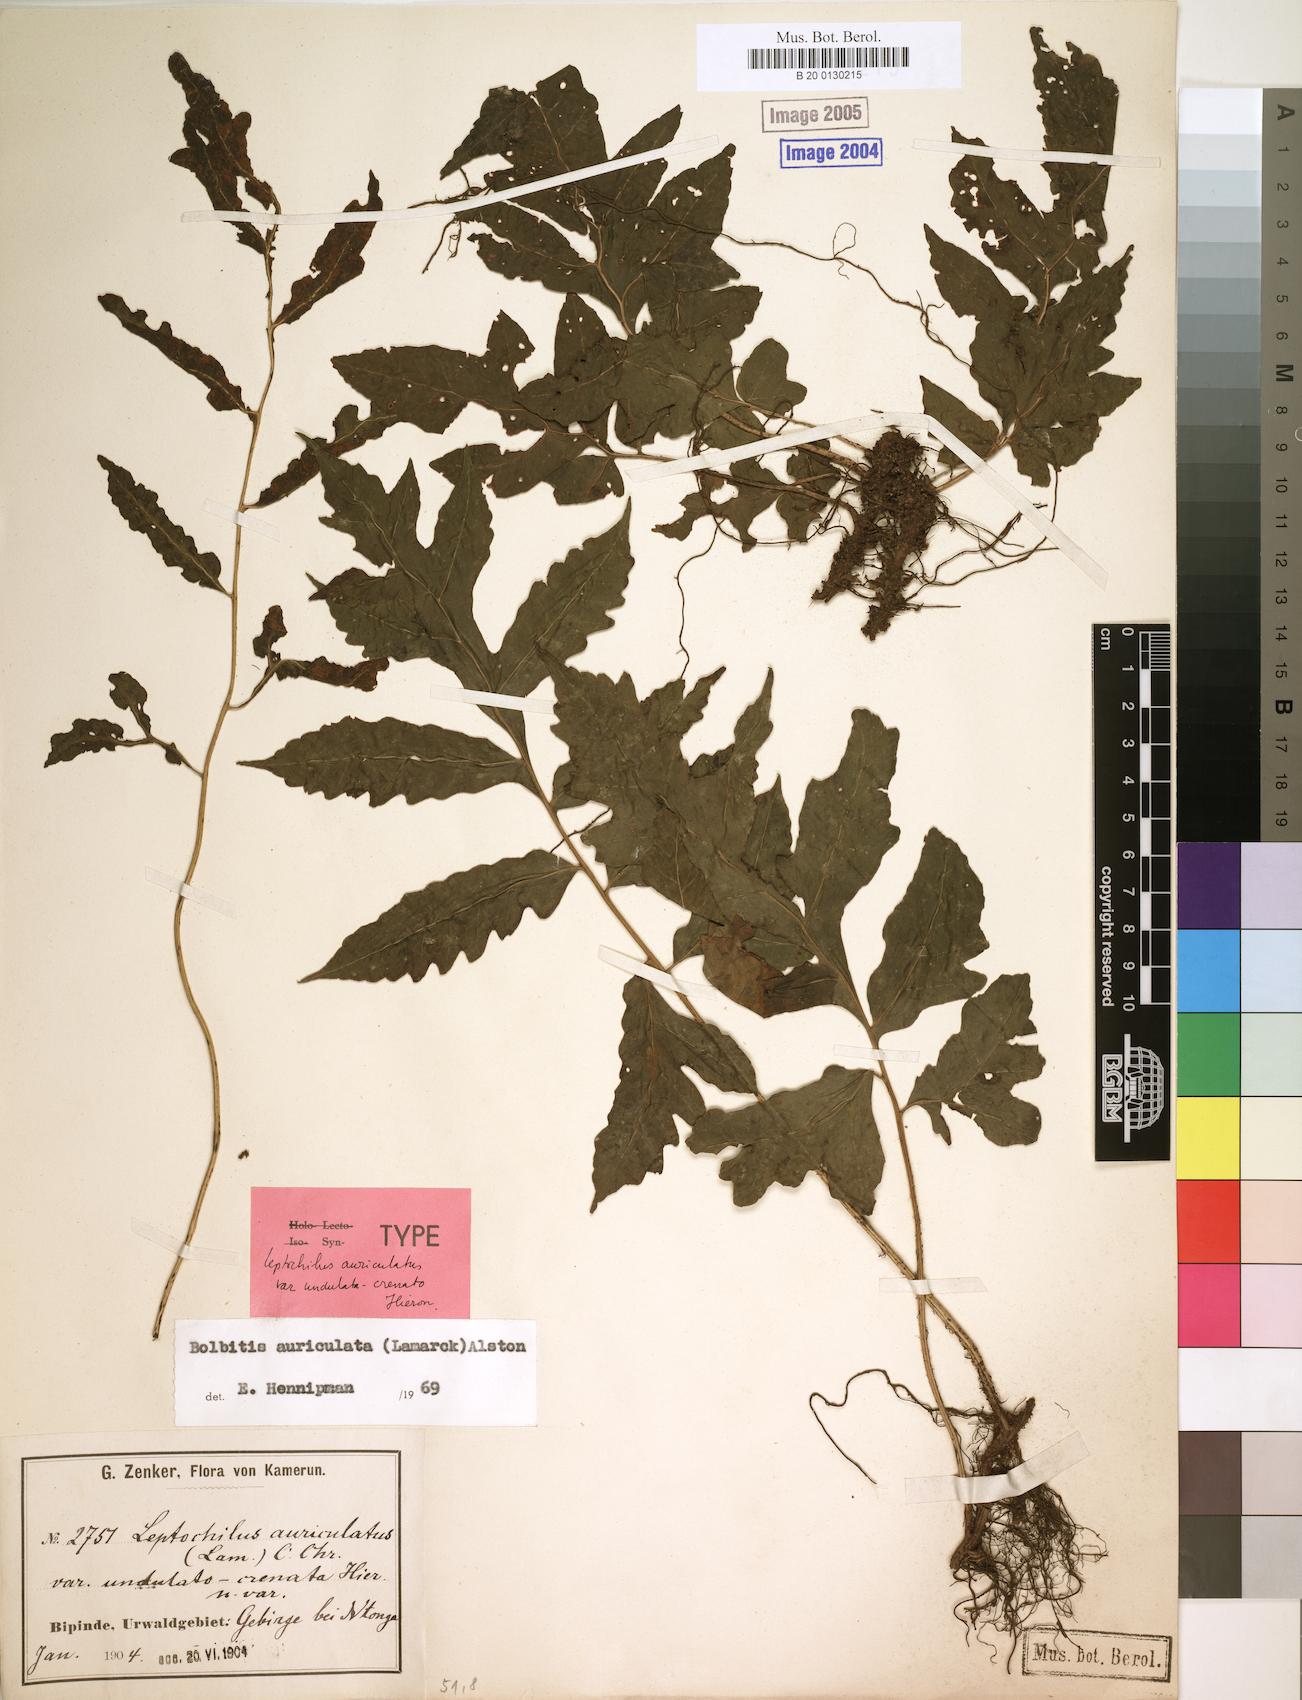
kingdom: Plantae
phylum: Tracheophyta
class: Polypodiopsida
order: Polypodiales
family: Dryopteridaceae
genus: Bolbitis
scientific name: Bolbitis auriculata
